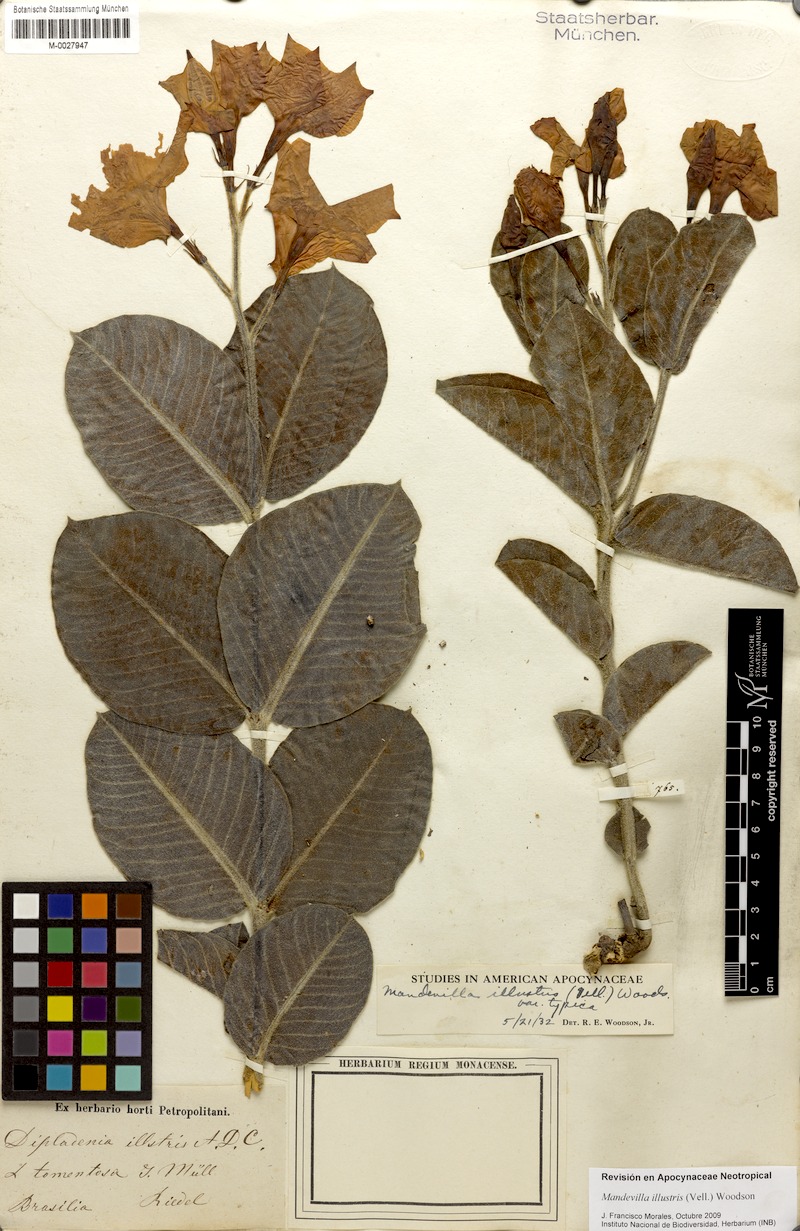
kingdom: Plantae
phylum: Tracheophyta
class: Magnoliopsida
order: Gentianales
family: Apocynaceae
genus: Mandevilla
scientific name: Mandevilla illustris
